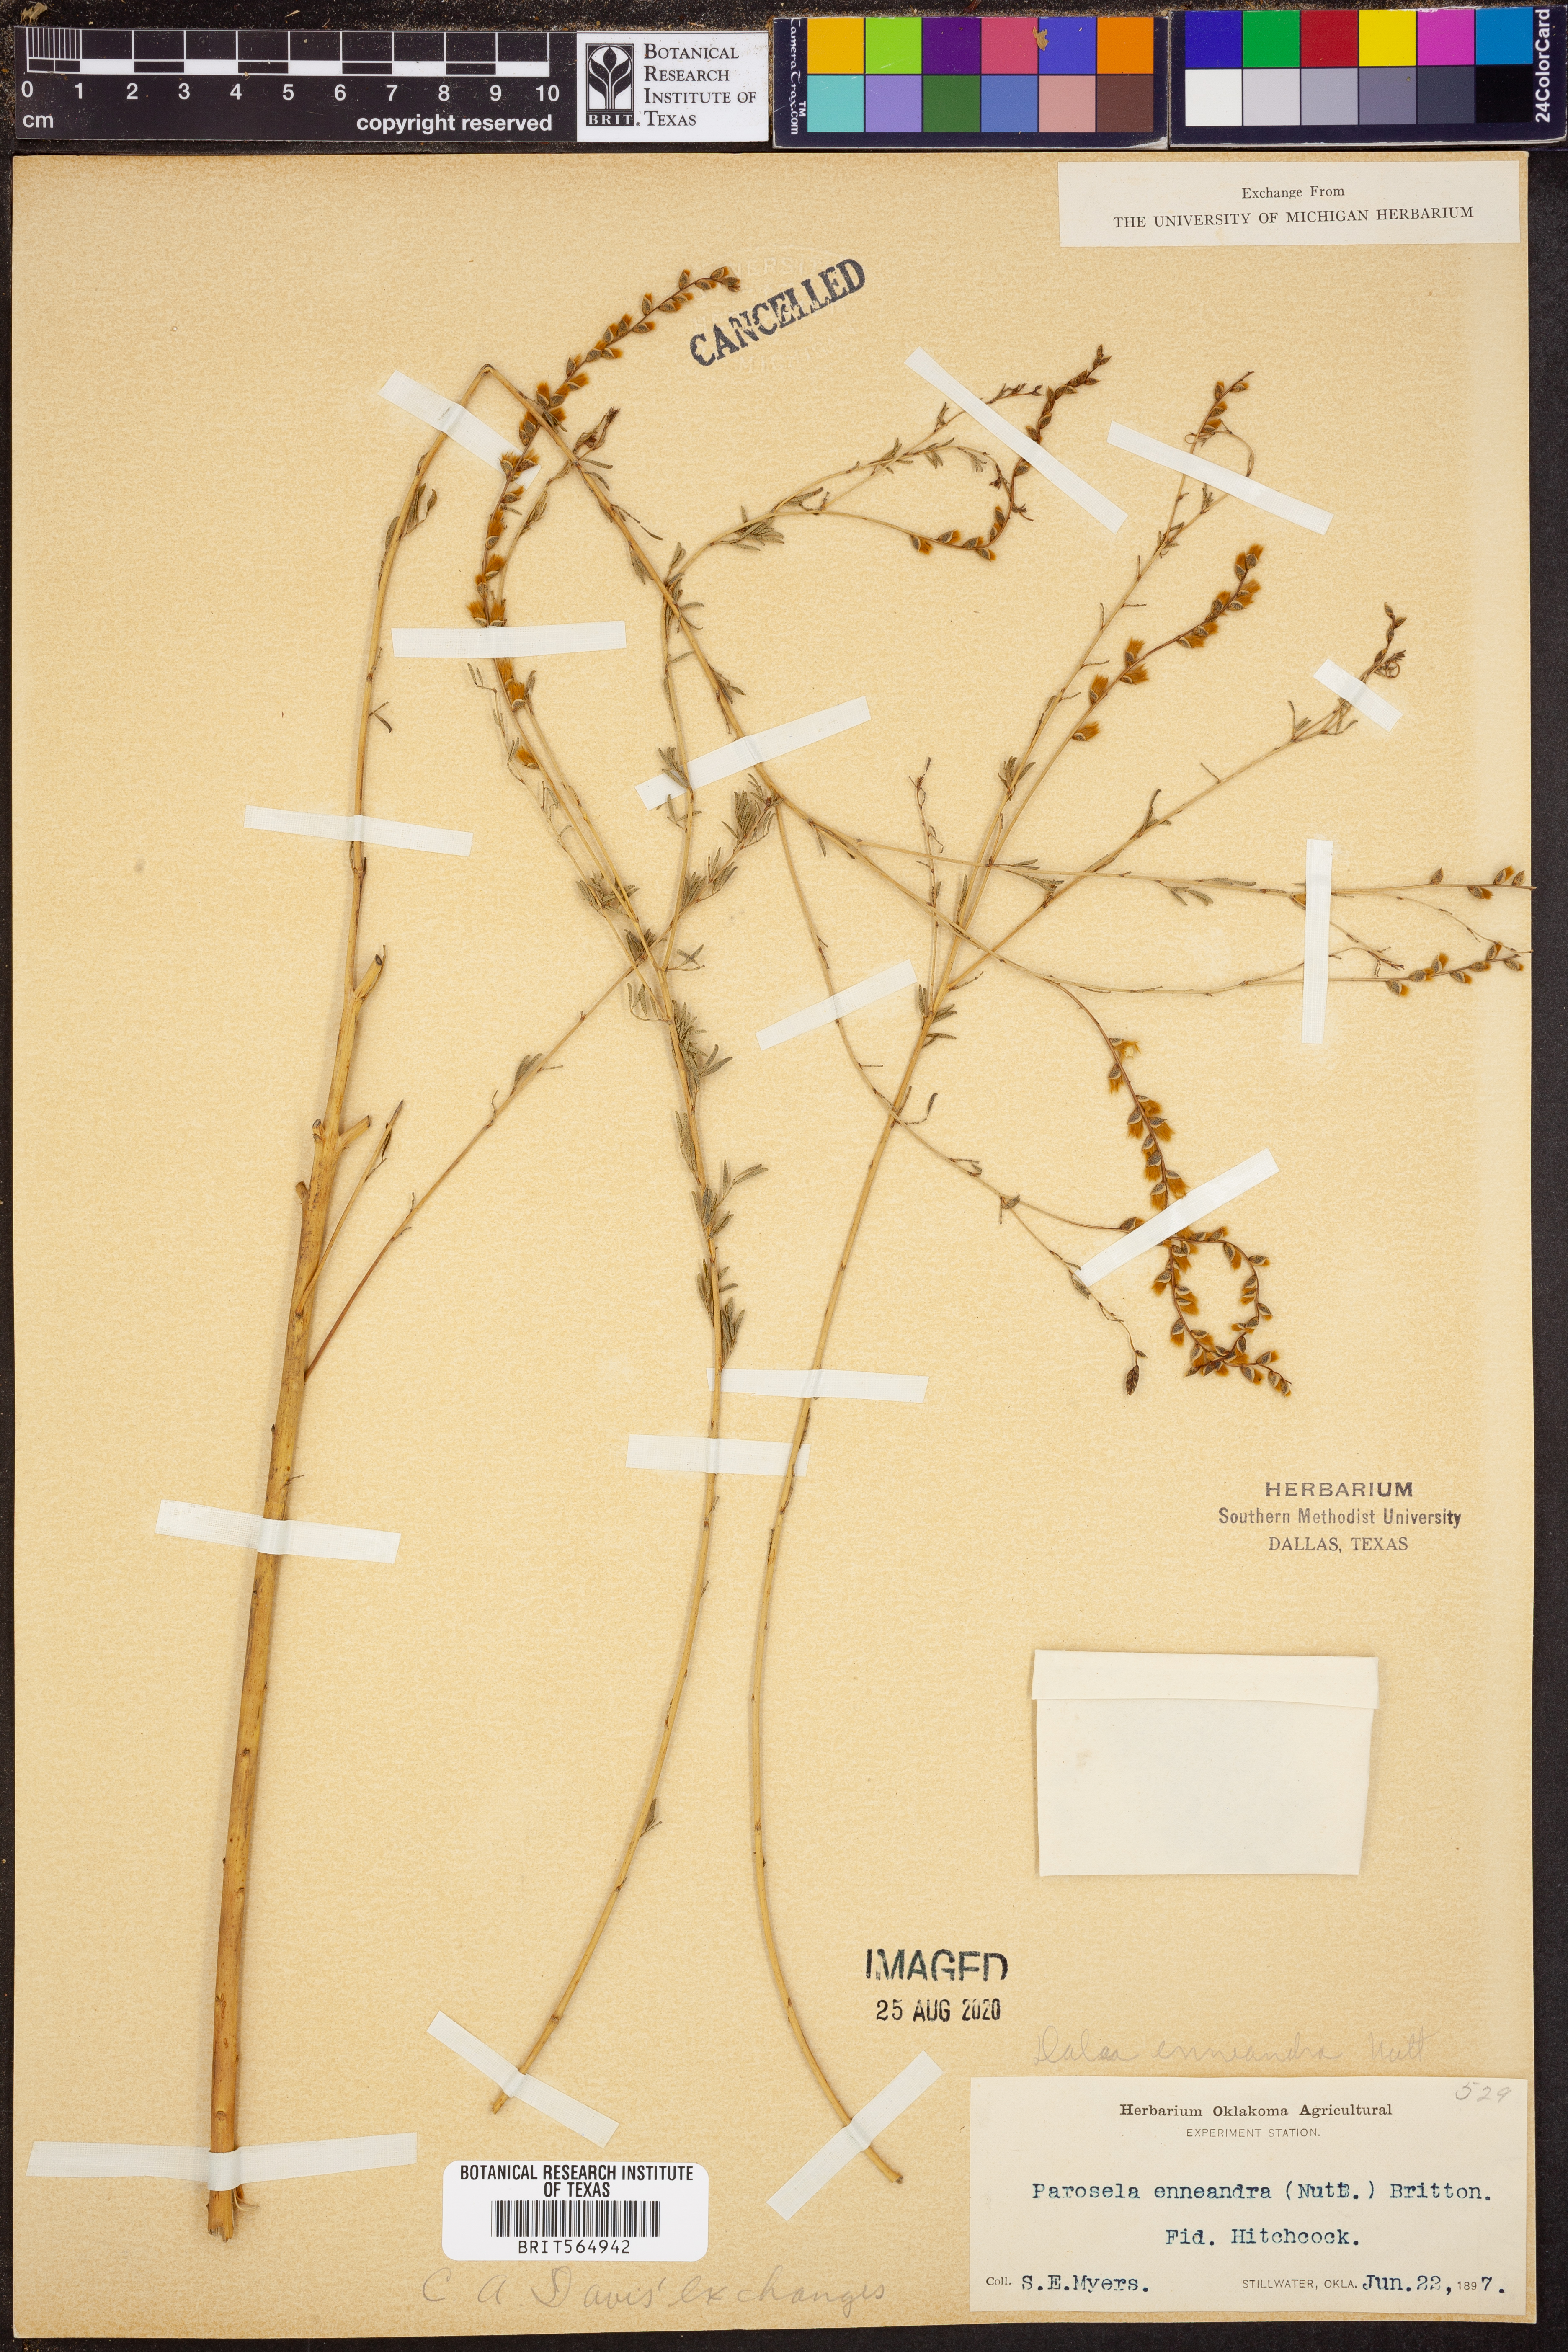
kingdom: Plantae
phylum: Tracheophyta
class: Magnoliopsida
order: Fabales
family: Fabaceae
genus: Dalea
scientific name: Dalea enneandra
